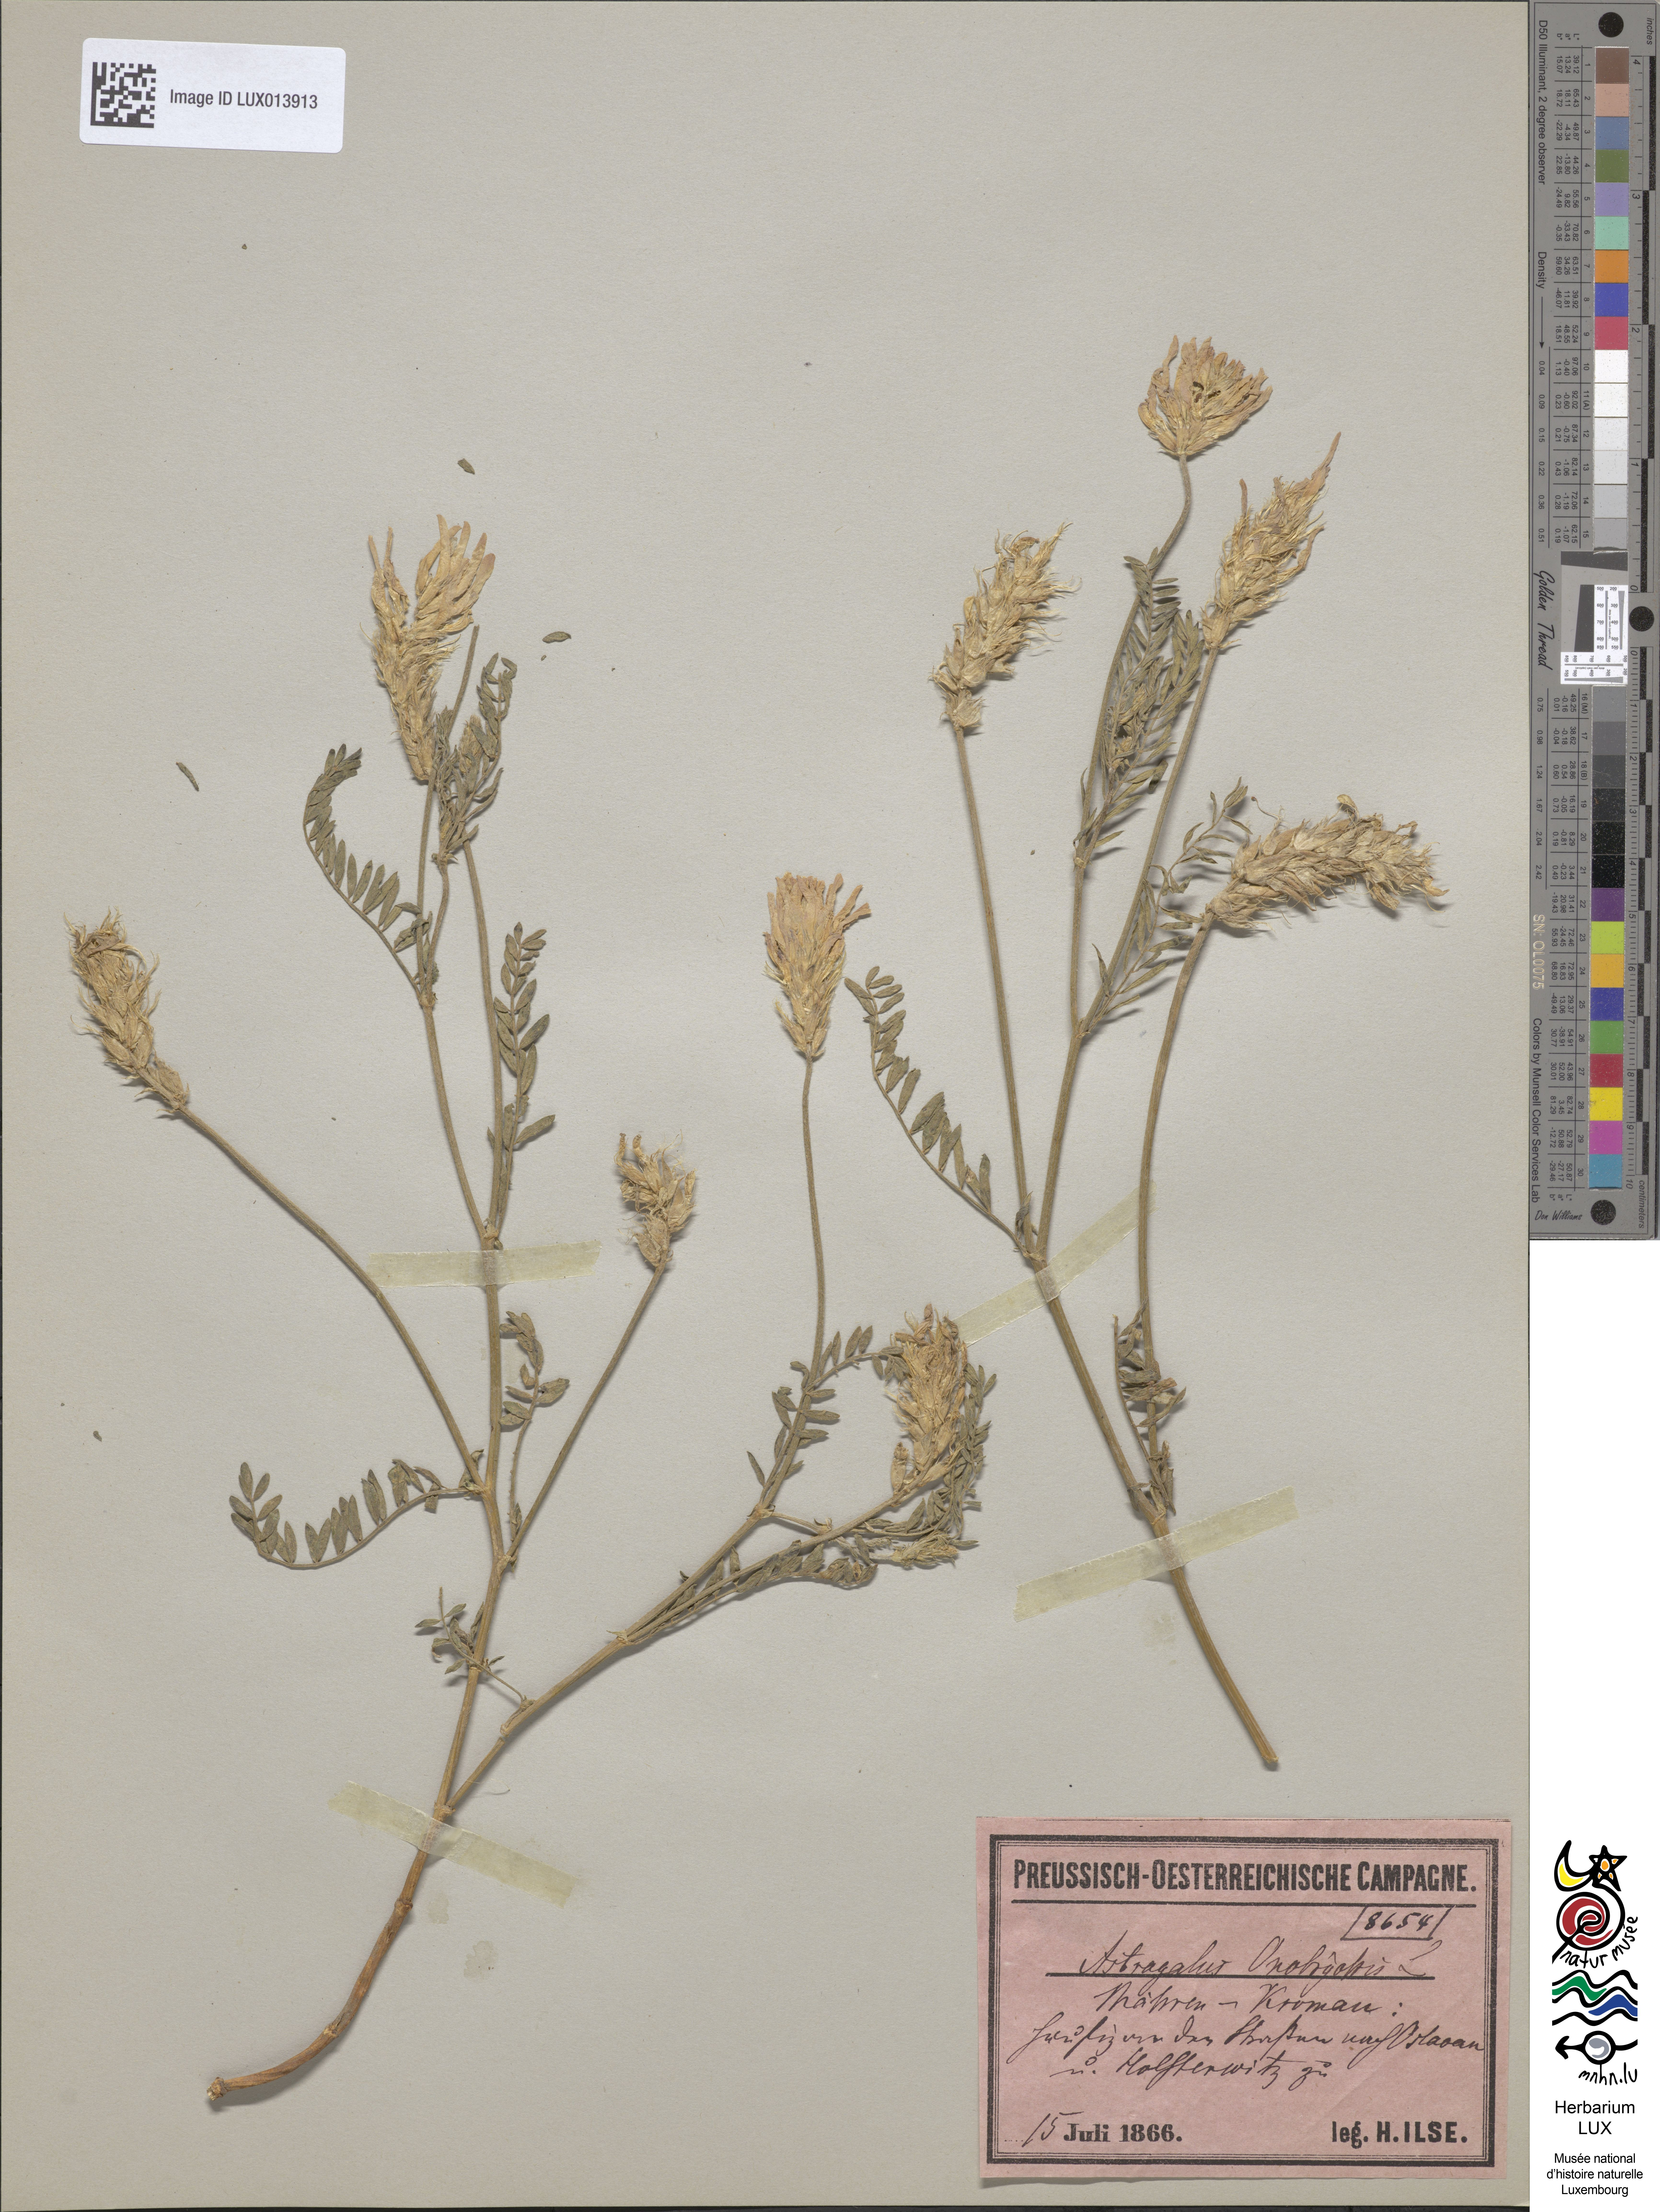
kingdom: Plantae
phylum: Tracheophyta
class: Magnoliopsida
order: Fabales
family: Fabaceae
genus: Astragalus
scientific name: Astragalus onobrychis
